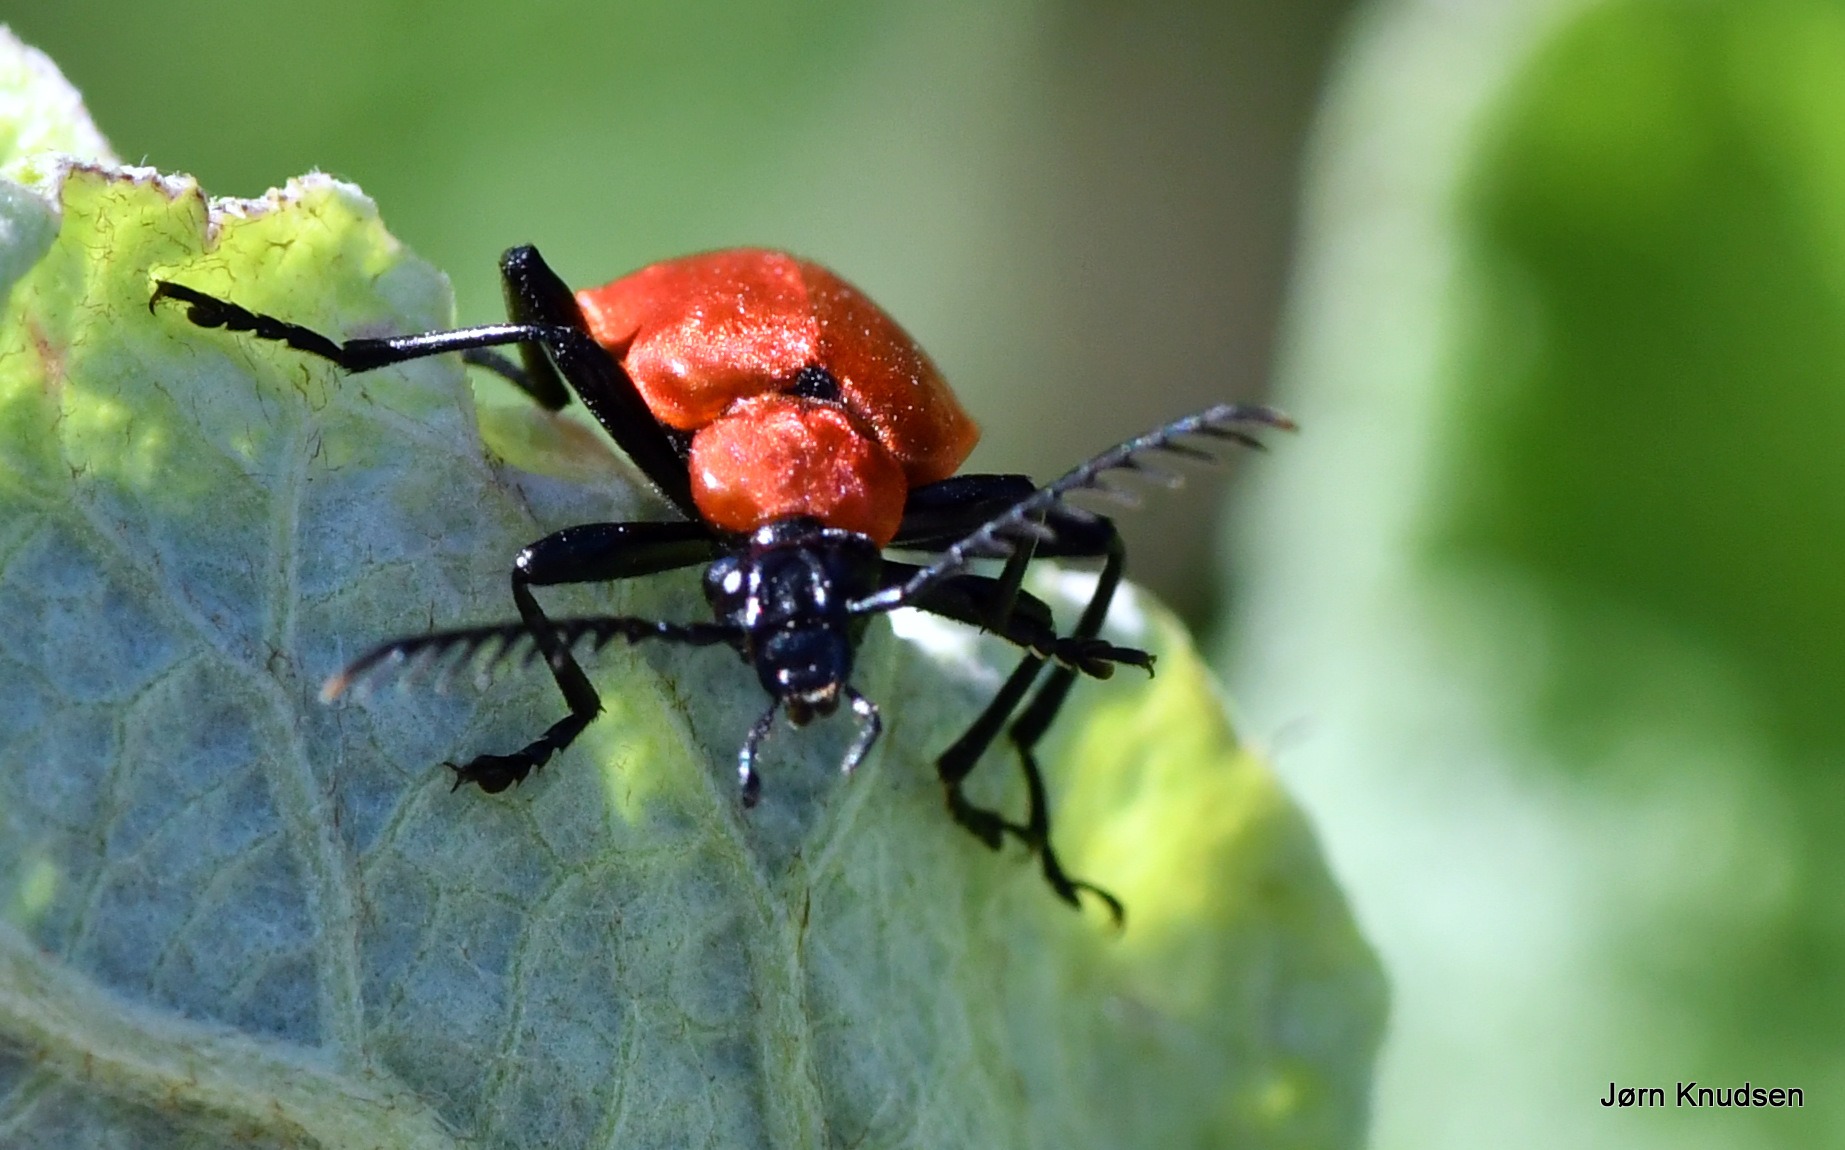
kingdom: Animalia
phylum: Arthropoda
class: Insecta
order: Coleoptera
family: Pyrochroidae
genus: Pyrochroa
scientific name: Pyrochroa coccinea
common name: Sorthovedet kardinalbille
